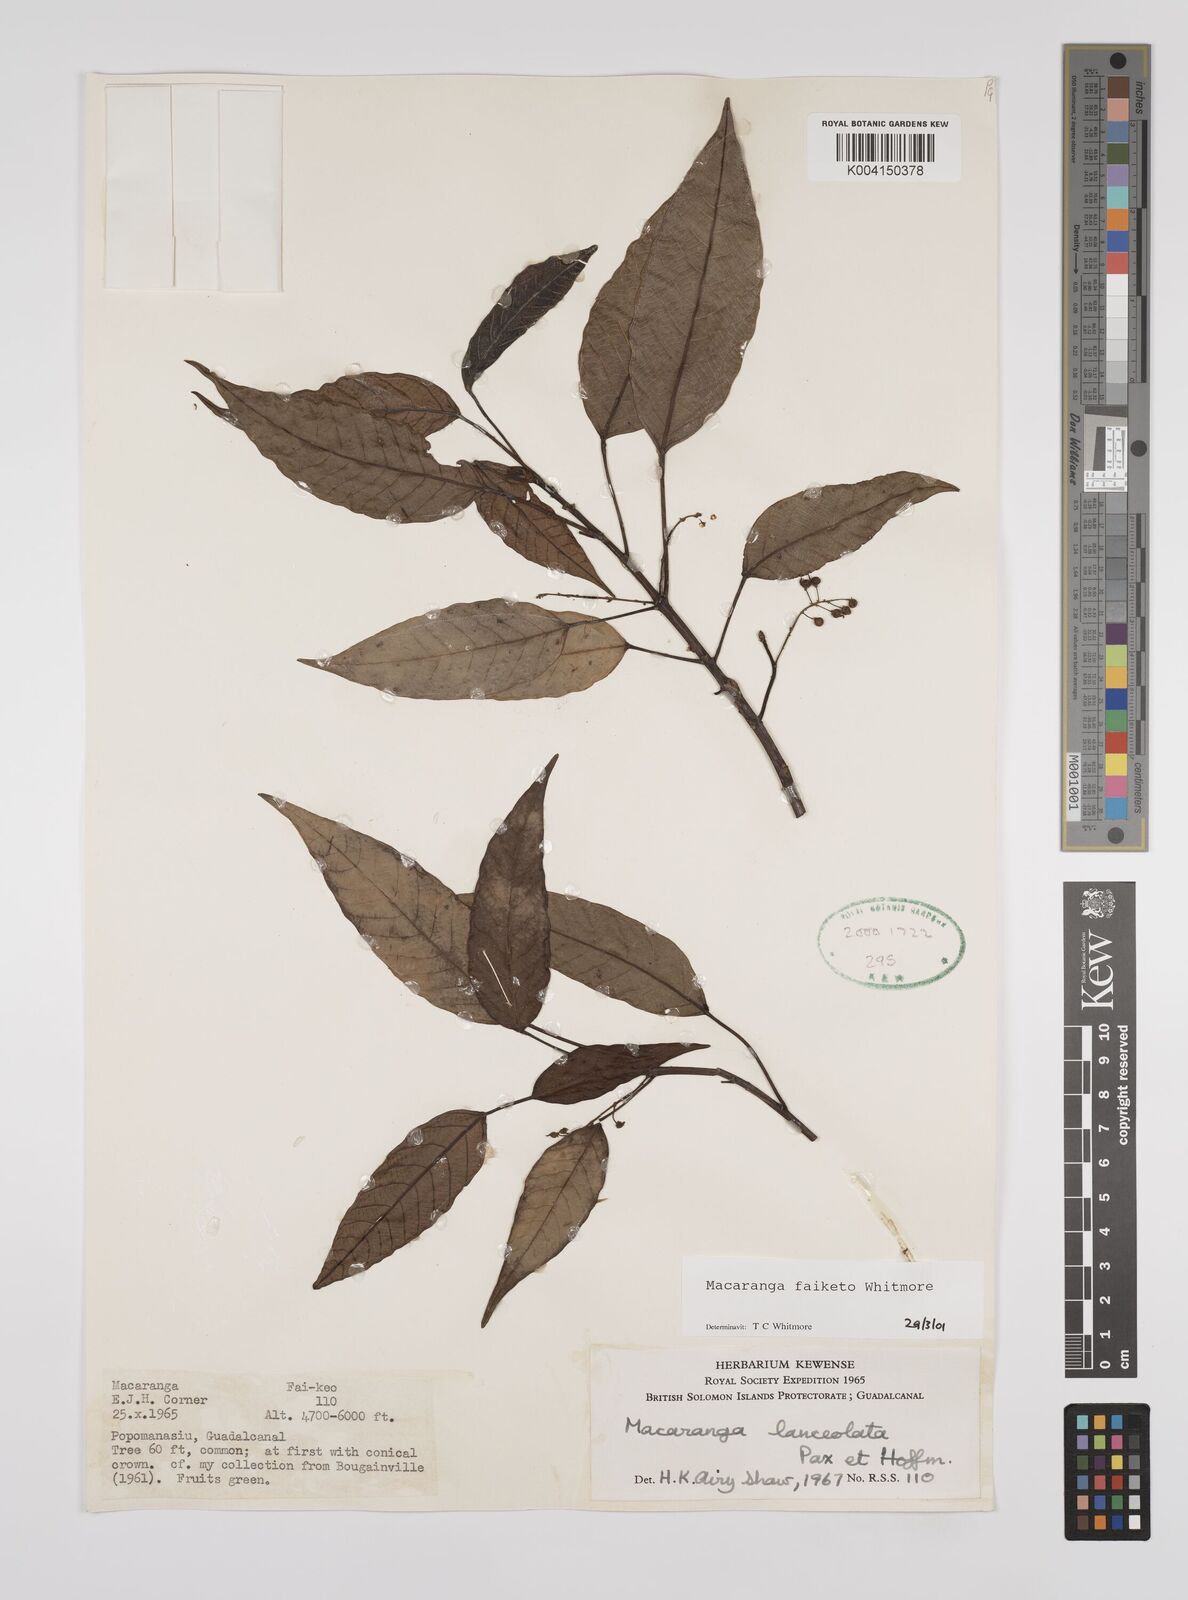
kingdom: Plantae
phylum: Tracheophyta
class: Magnoliopsida
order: Malpighiales
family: Euphorbiaceae
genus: Macaranga
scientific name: Macaranga faiketo
